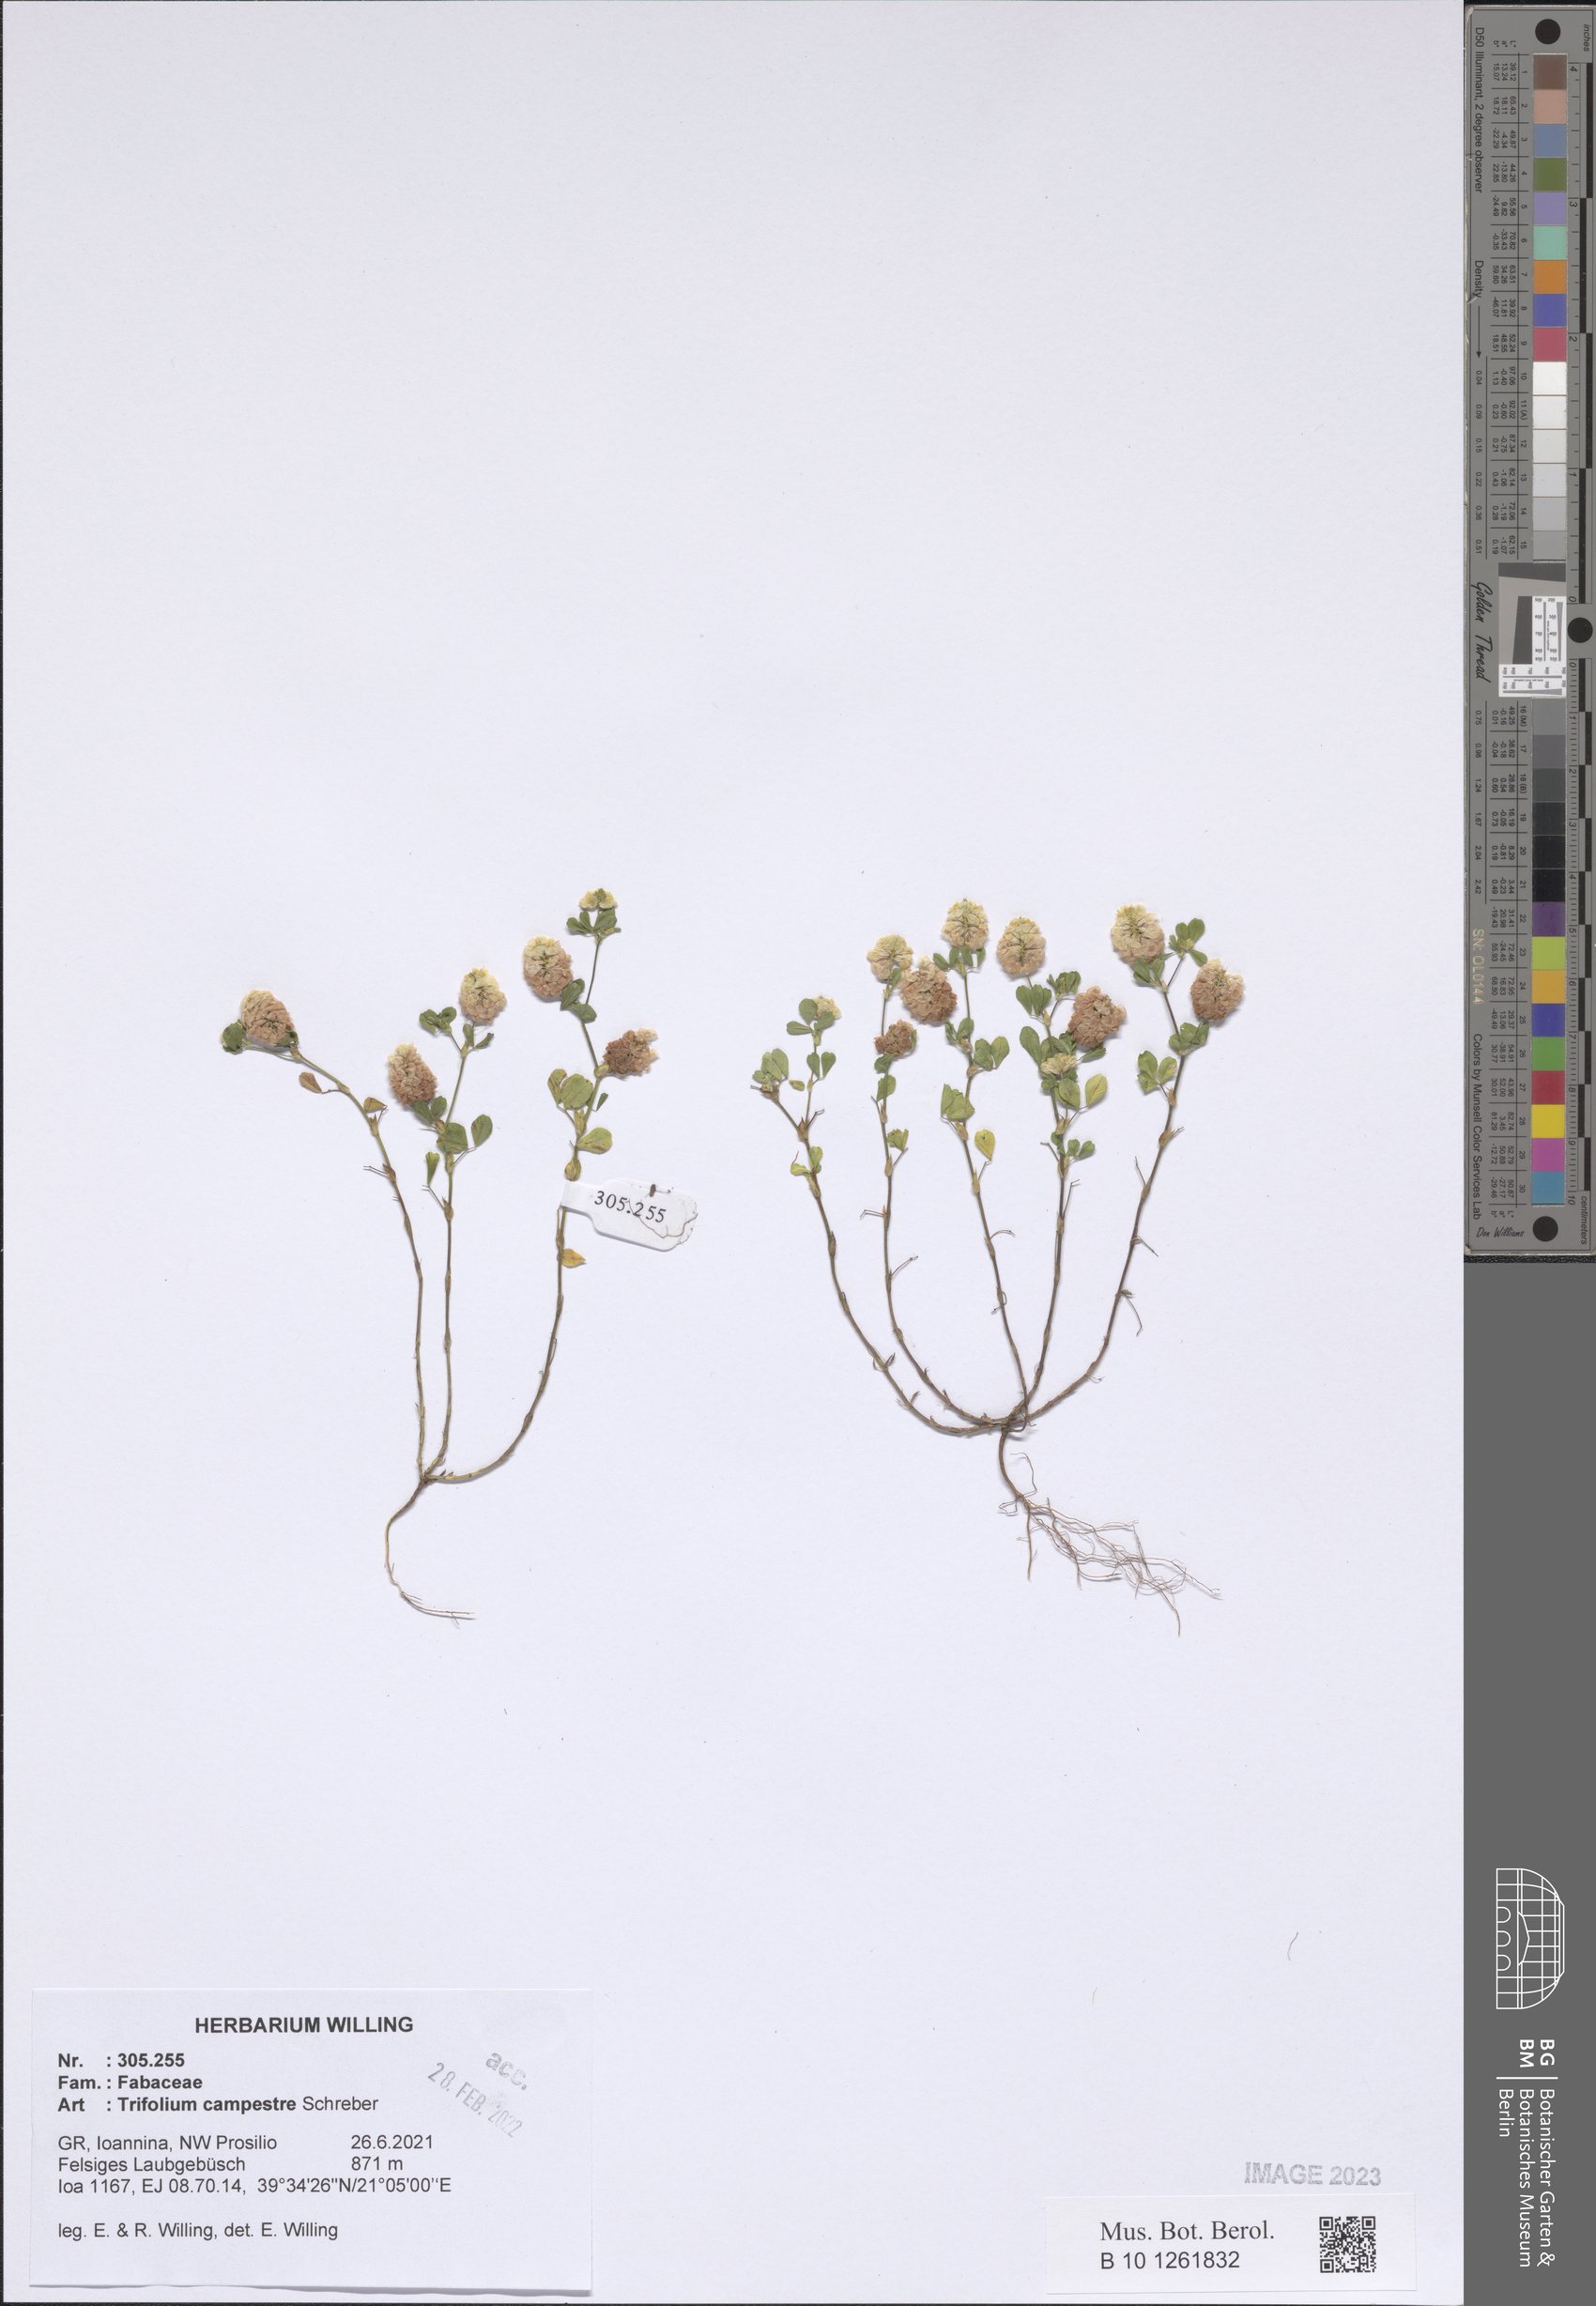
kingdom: Plantae
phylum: Tracheophyta
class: Magnoliopsida
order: Fabales
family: Fabaceae
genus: Trifolium
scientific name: Trifolium campestre
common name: Field clover
